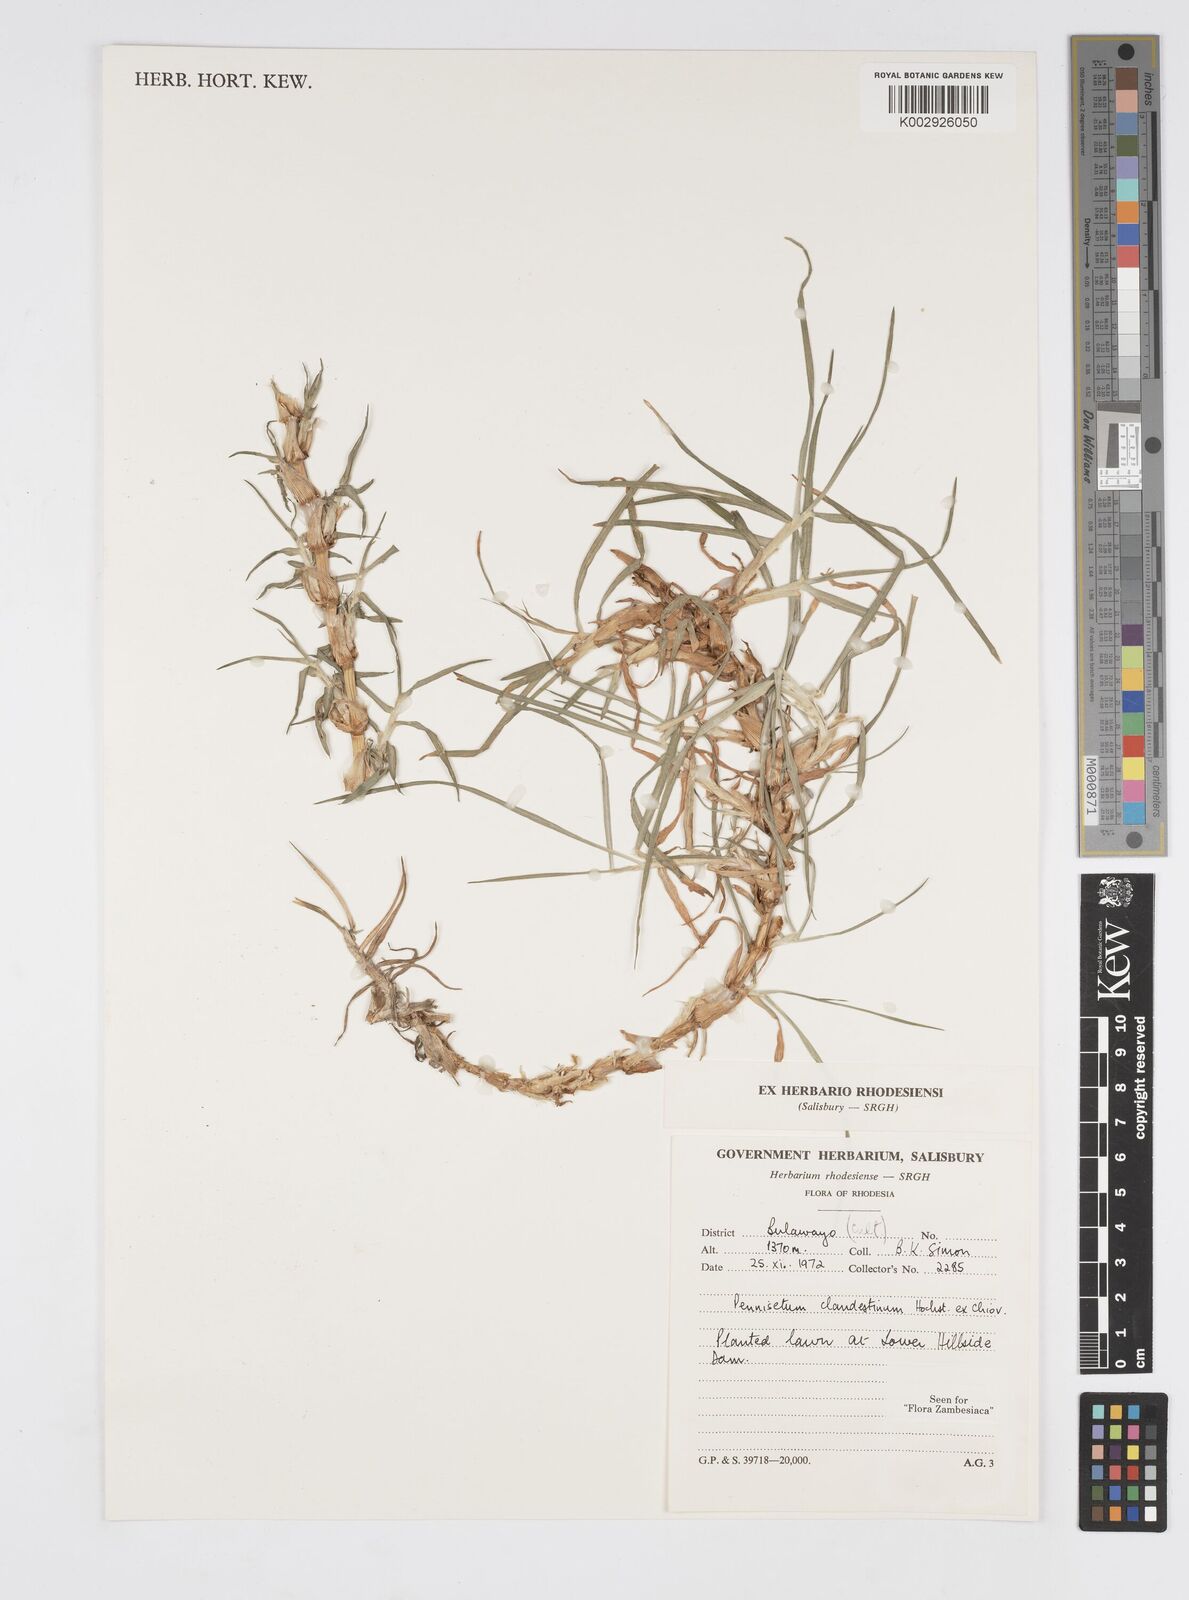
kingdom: Plantae
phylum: Tracheophyta
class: Liliopsida
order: Poales
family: Poaceae
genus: Cenchrus
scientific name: Cenchrus clandestinus
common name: Kikuyugrass
